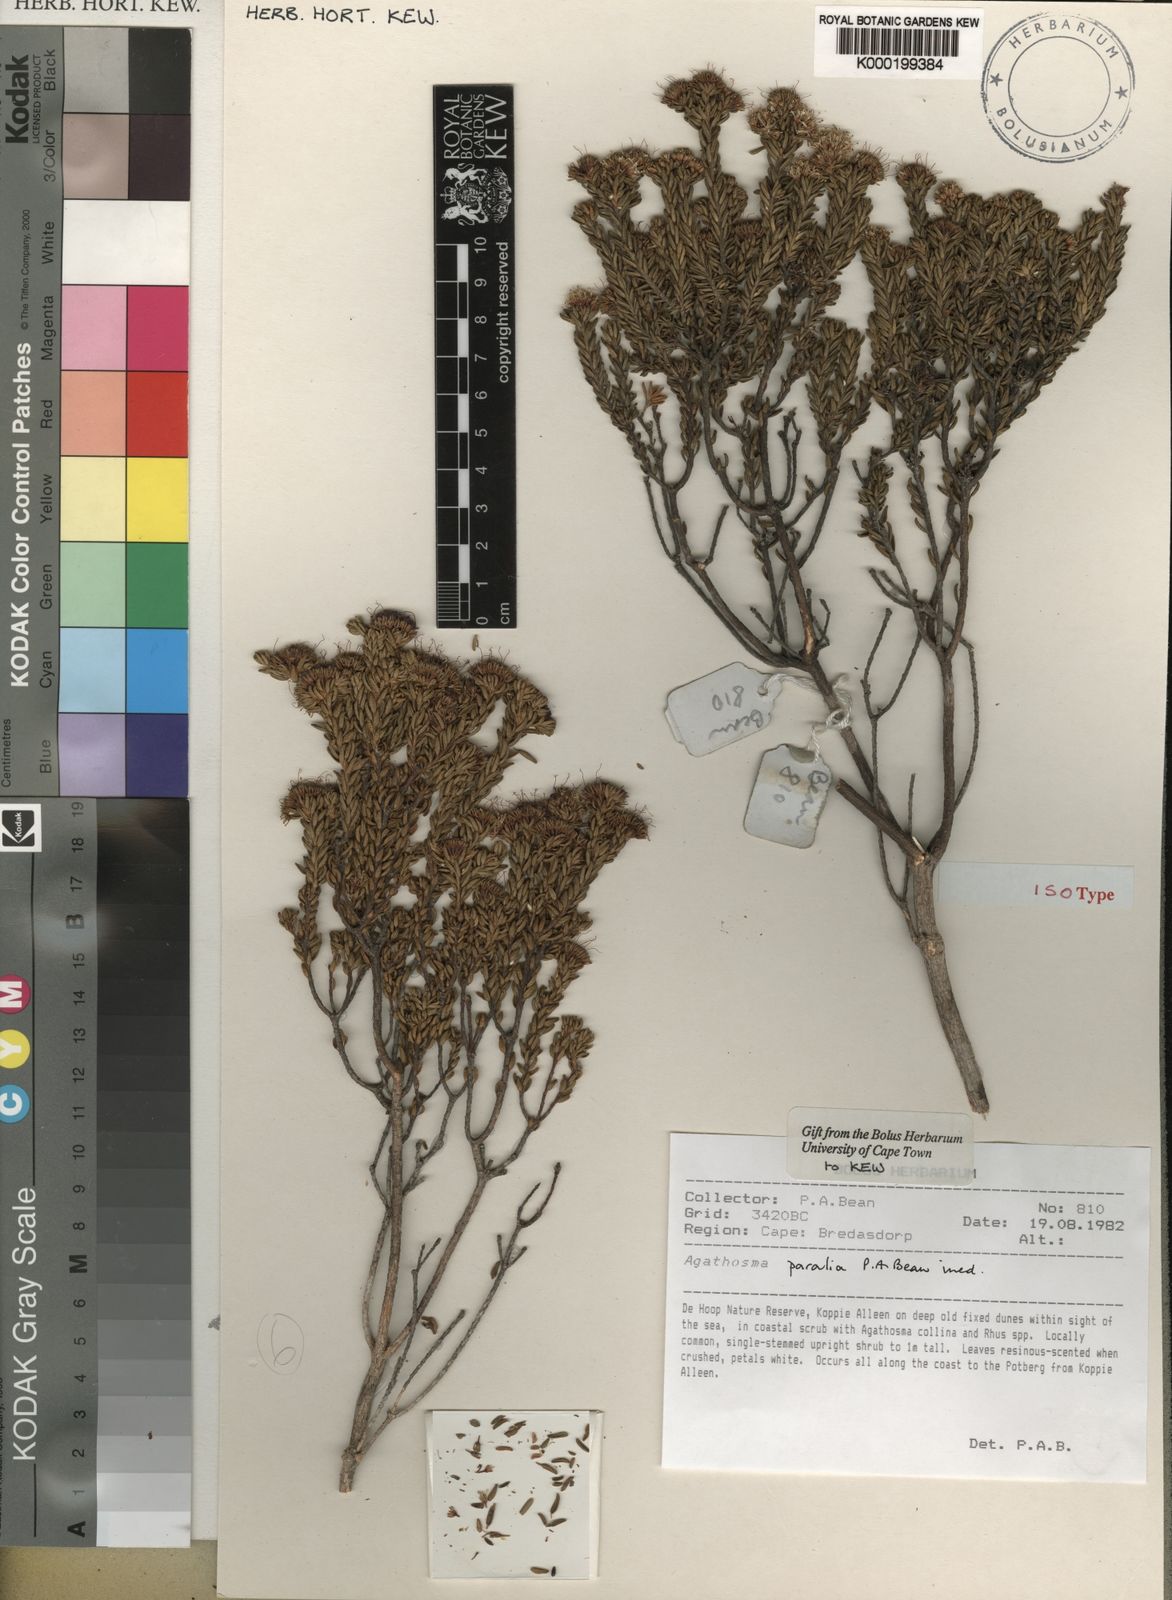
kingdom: Plantae
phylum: Tracheophyta
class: Magnoliopsida
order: Sapindales
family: Rutaceae
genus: Agathosma
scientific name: Agathosma
